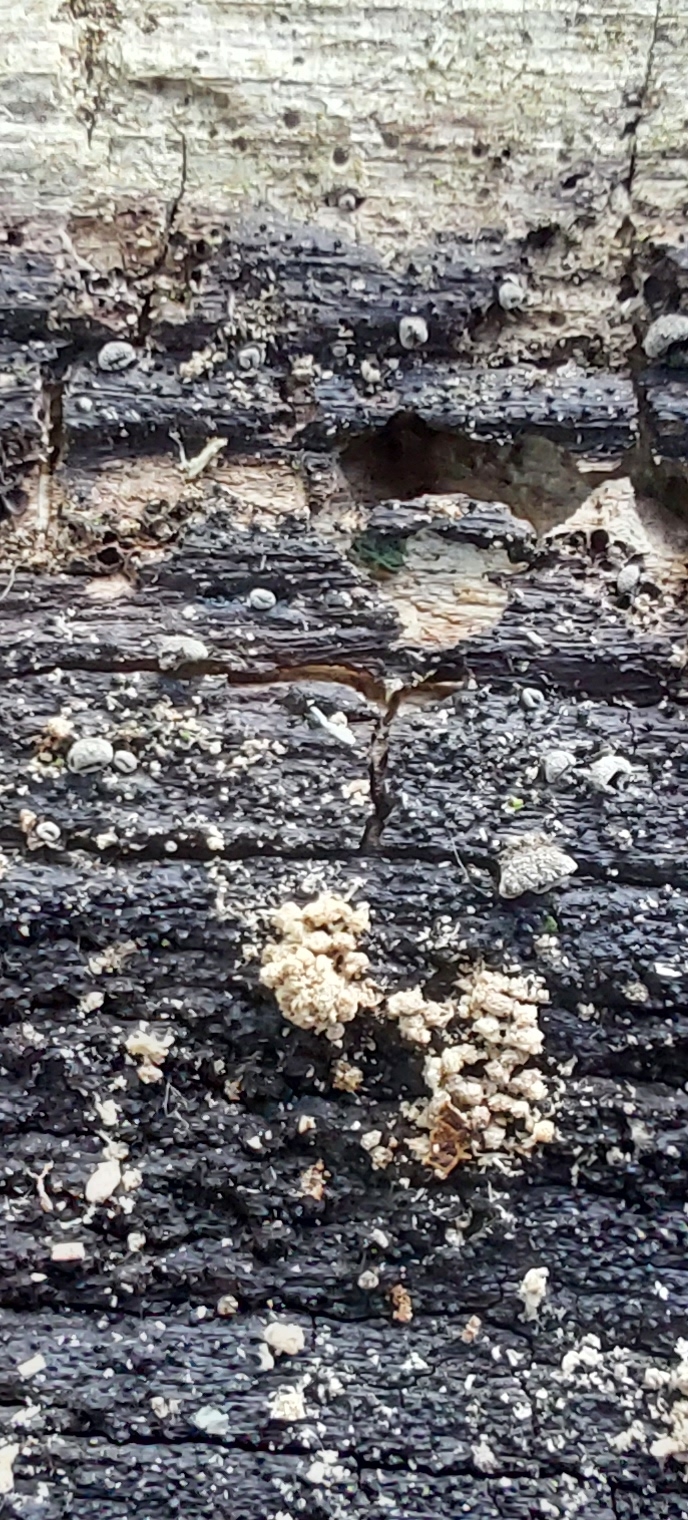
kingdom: Fungi
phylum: Basidiomycota
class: Agaricomycetes
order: Agaricales
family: Pleurotaceae
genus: Resupinatus
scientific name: Resupinatus applicatus
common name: lysfiltet barkhat
